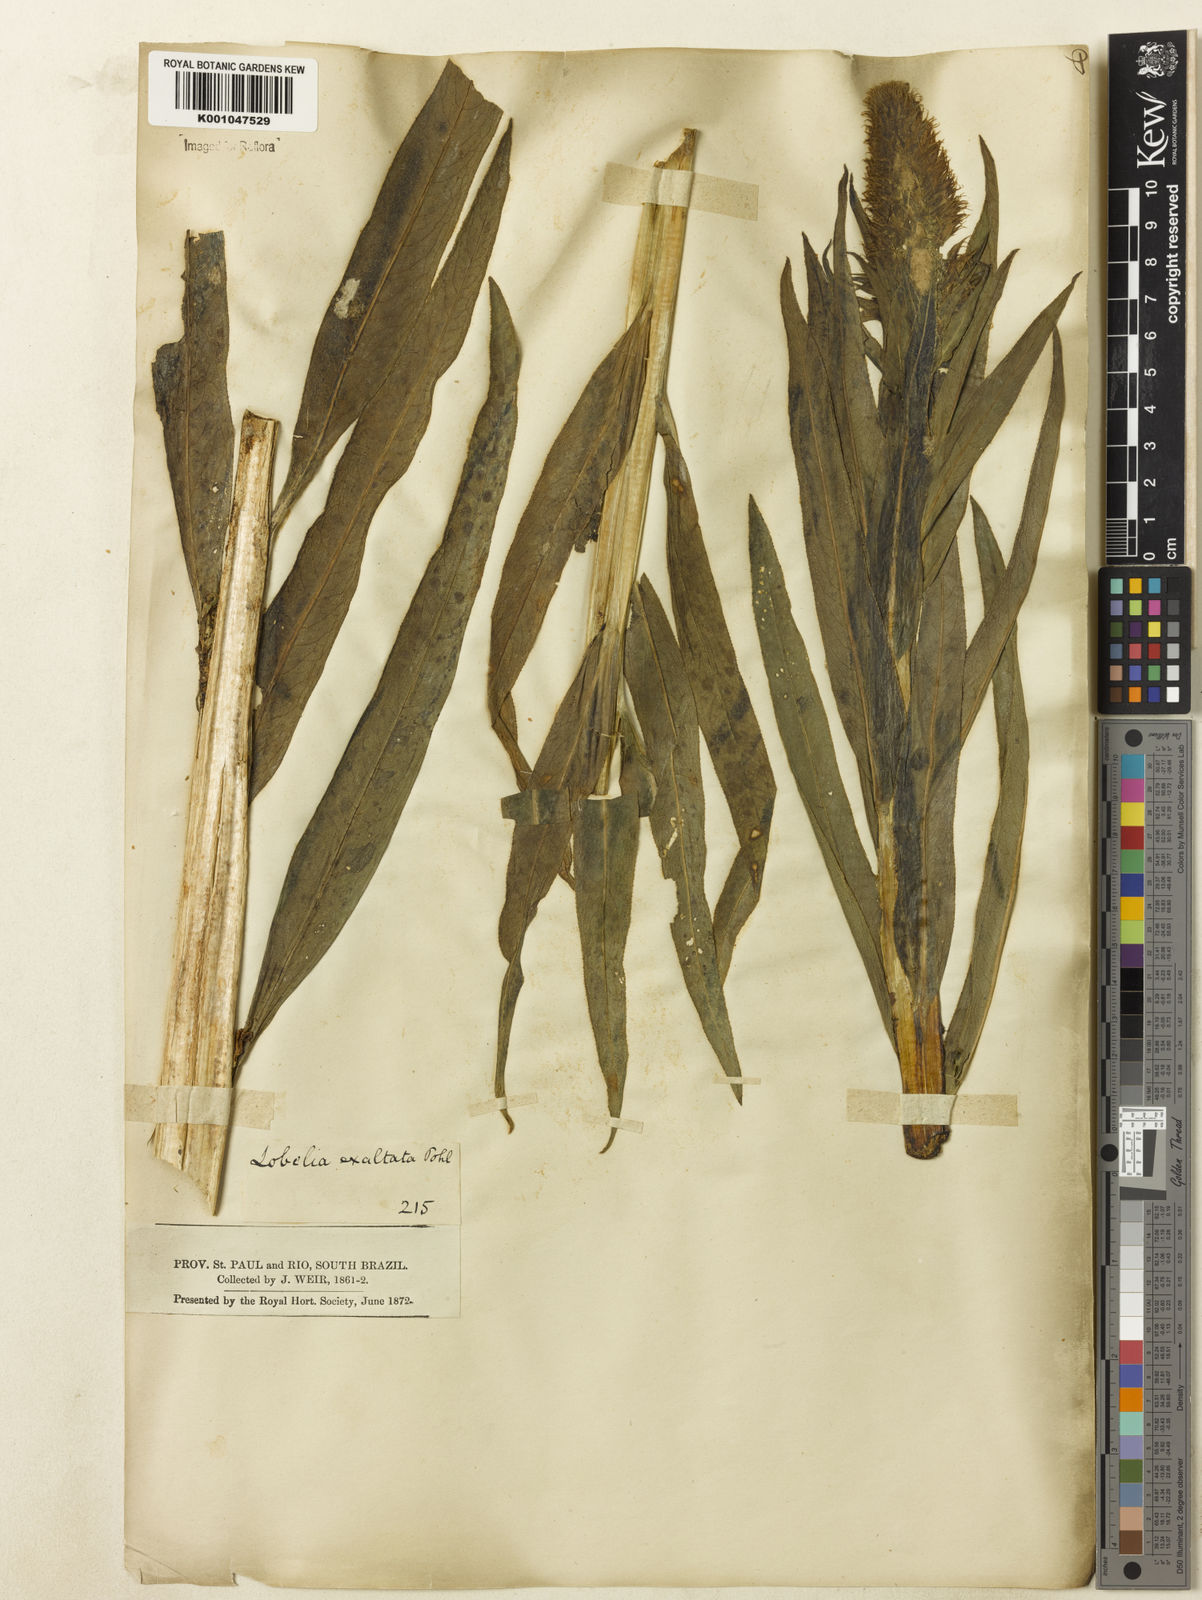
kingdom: Plantae
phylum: Tracheophyta
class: Magnoliopsida
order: Asterales
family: Campanulaceae
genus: Lobelia
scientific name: Lobelia exaltata
